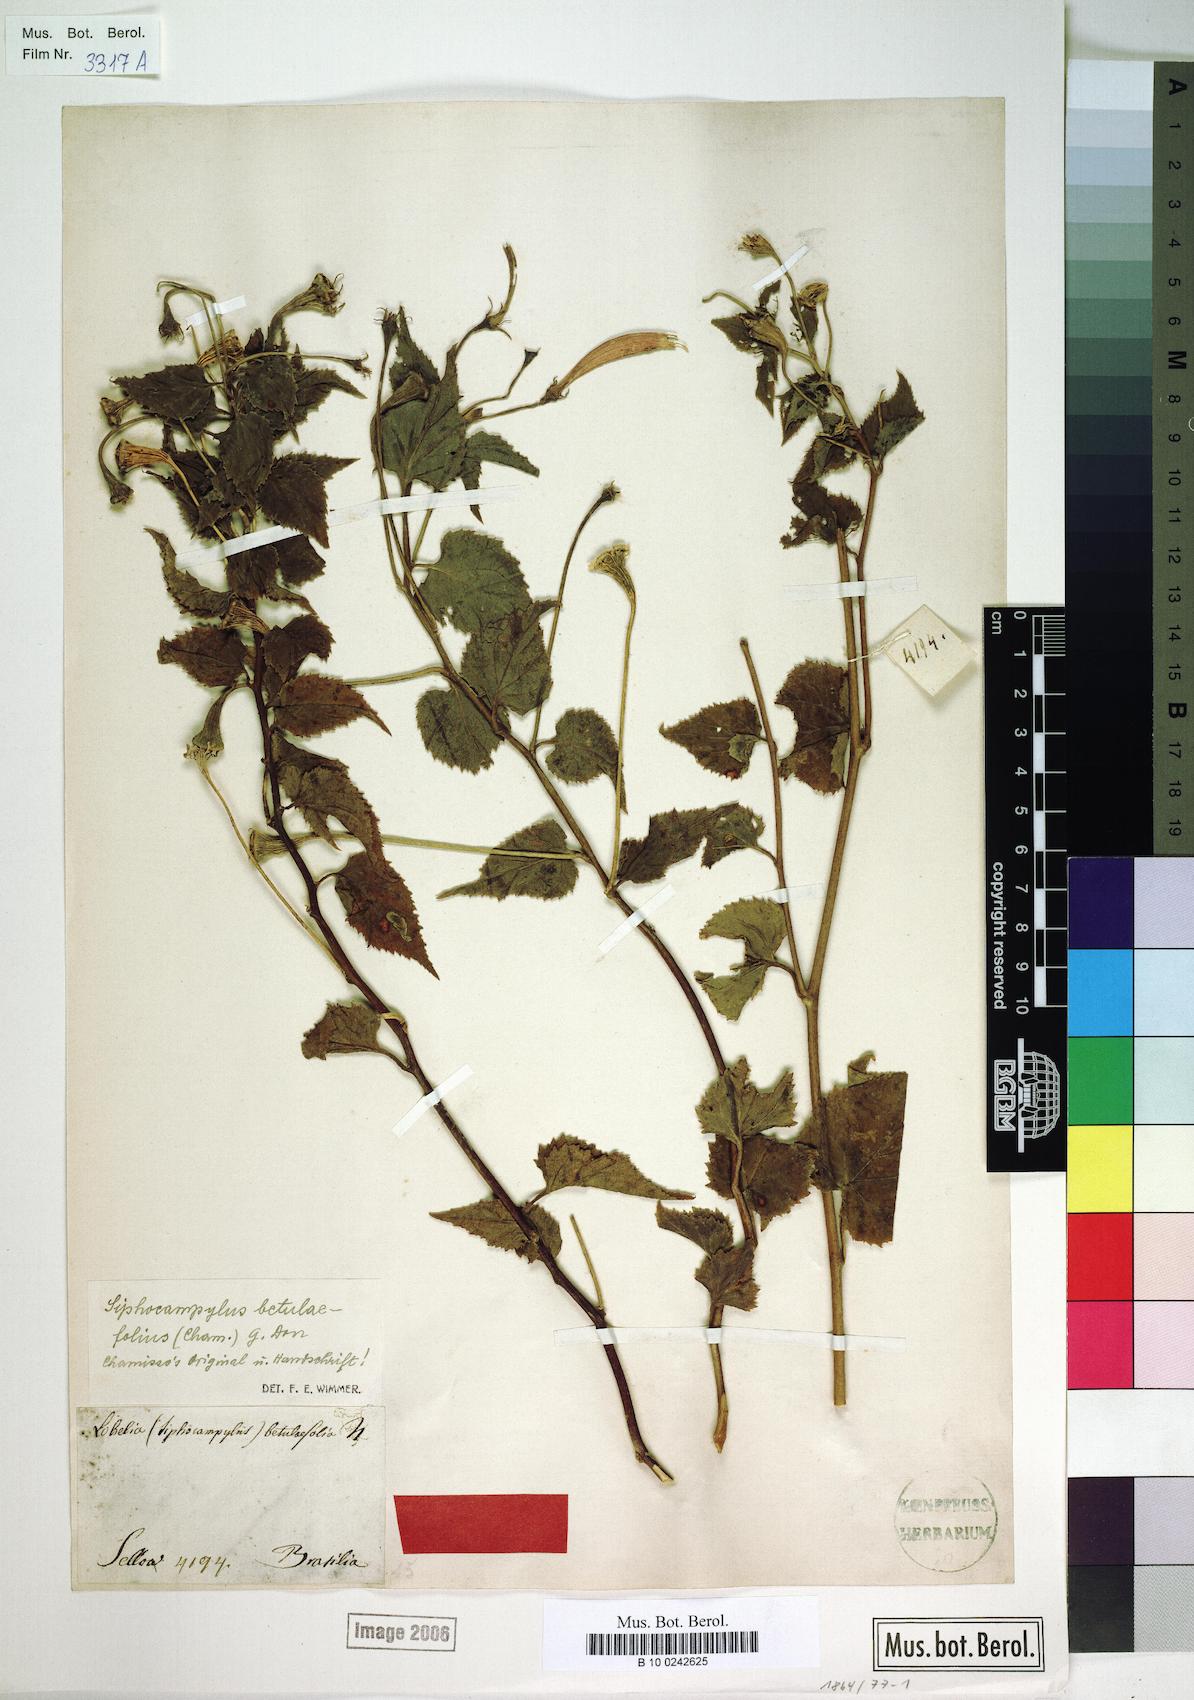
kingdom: Plantae
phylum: Tracheophyta
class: Magnoliopsida
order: Asterales
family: Campanulaceae
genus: Siphocampylus
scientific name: Siphocampylus betulifolius
